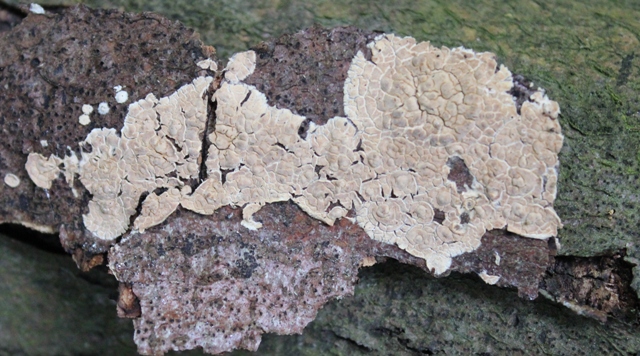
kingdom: Fungi
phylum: Basidiomycota
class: Agaricomycetes
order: Agaricales
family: Physalacriaceae
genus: Cylindrobasidium
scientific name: Cylindrobasidium evolvens
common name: sprækkehinde
